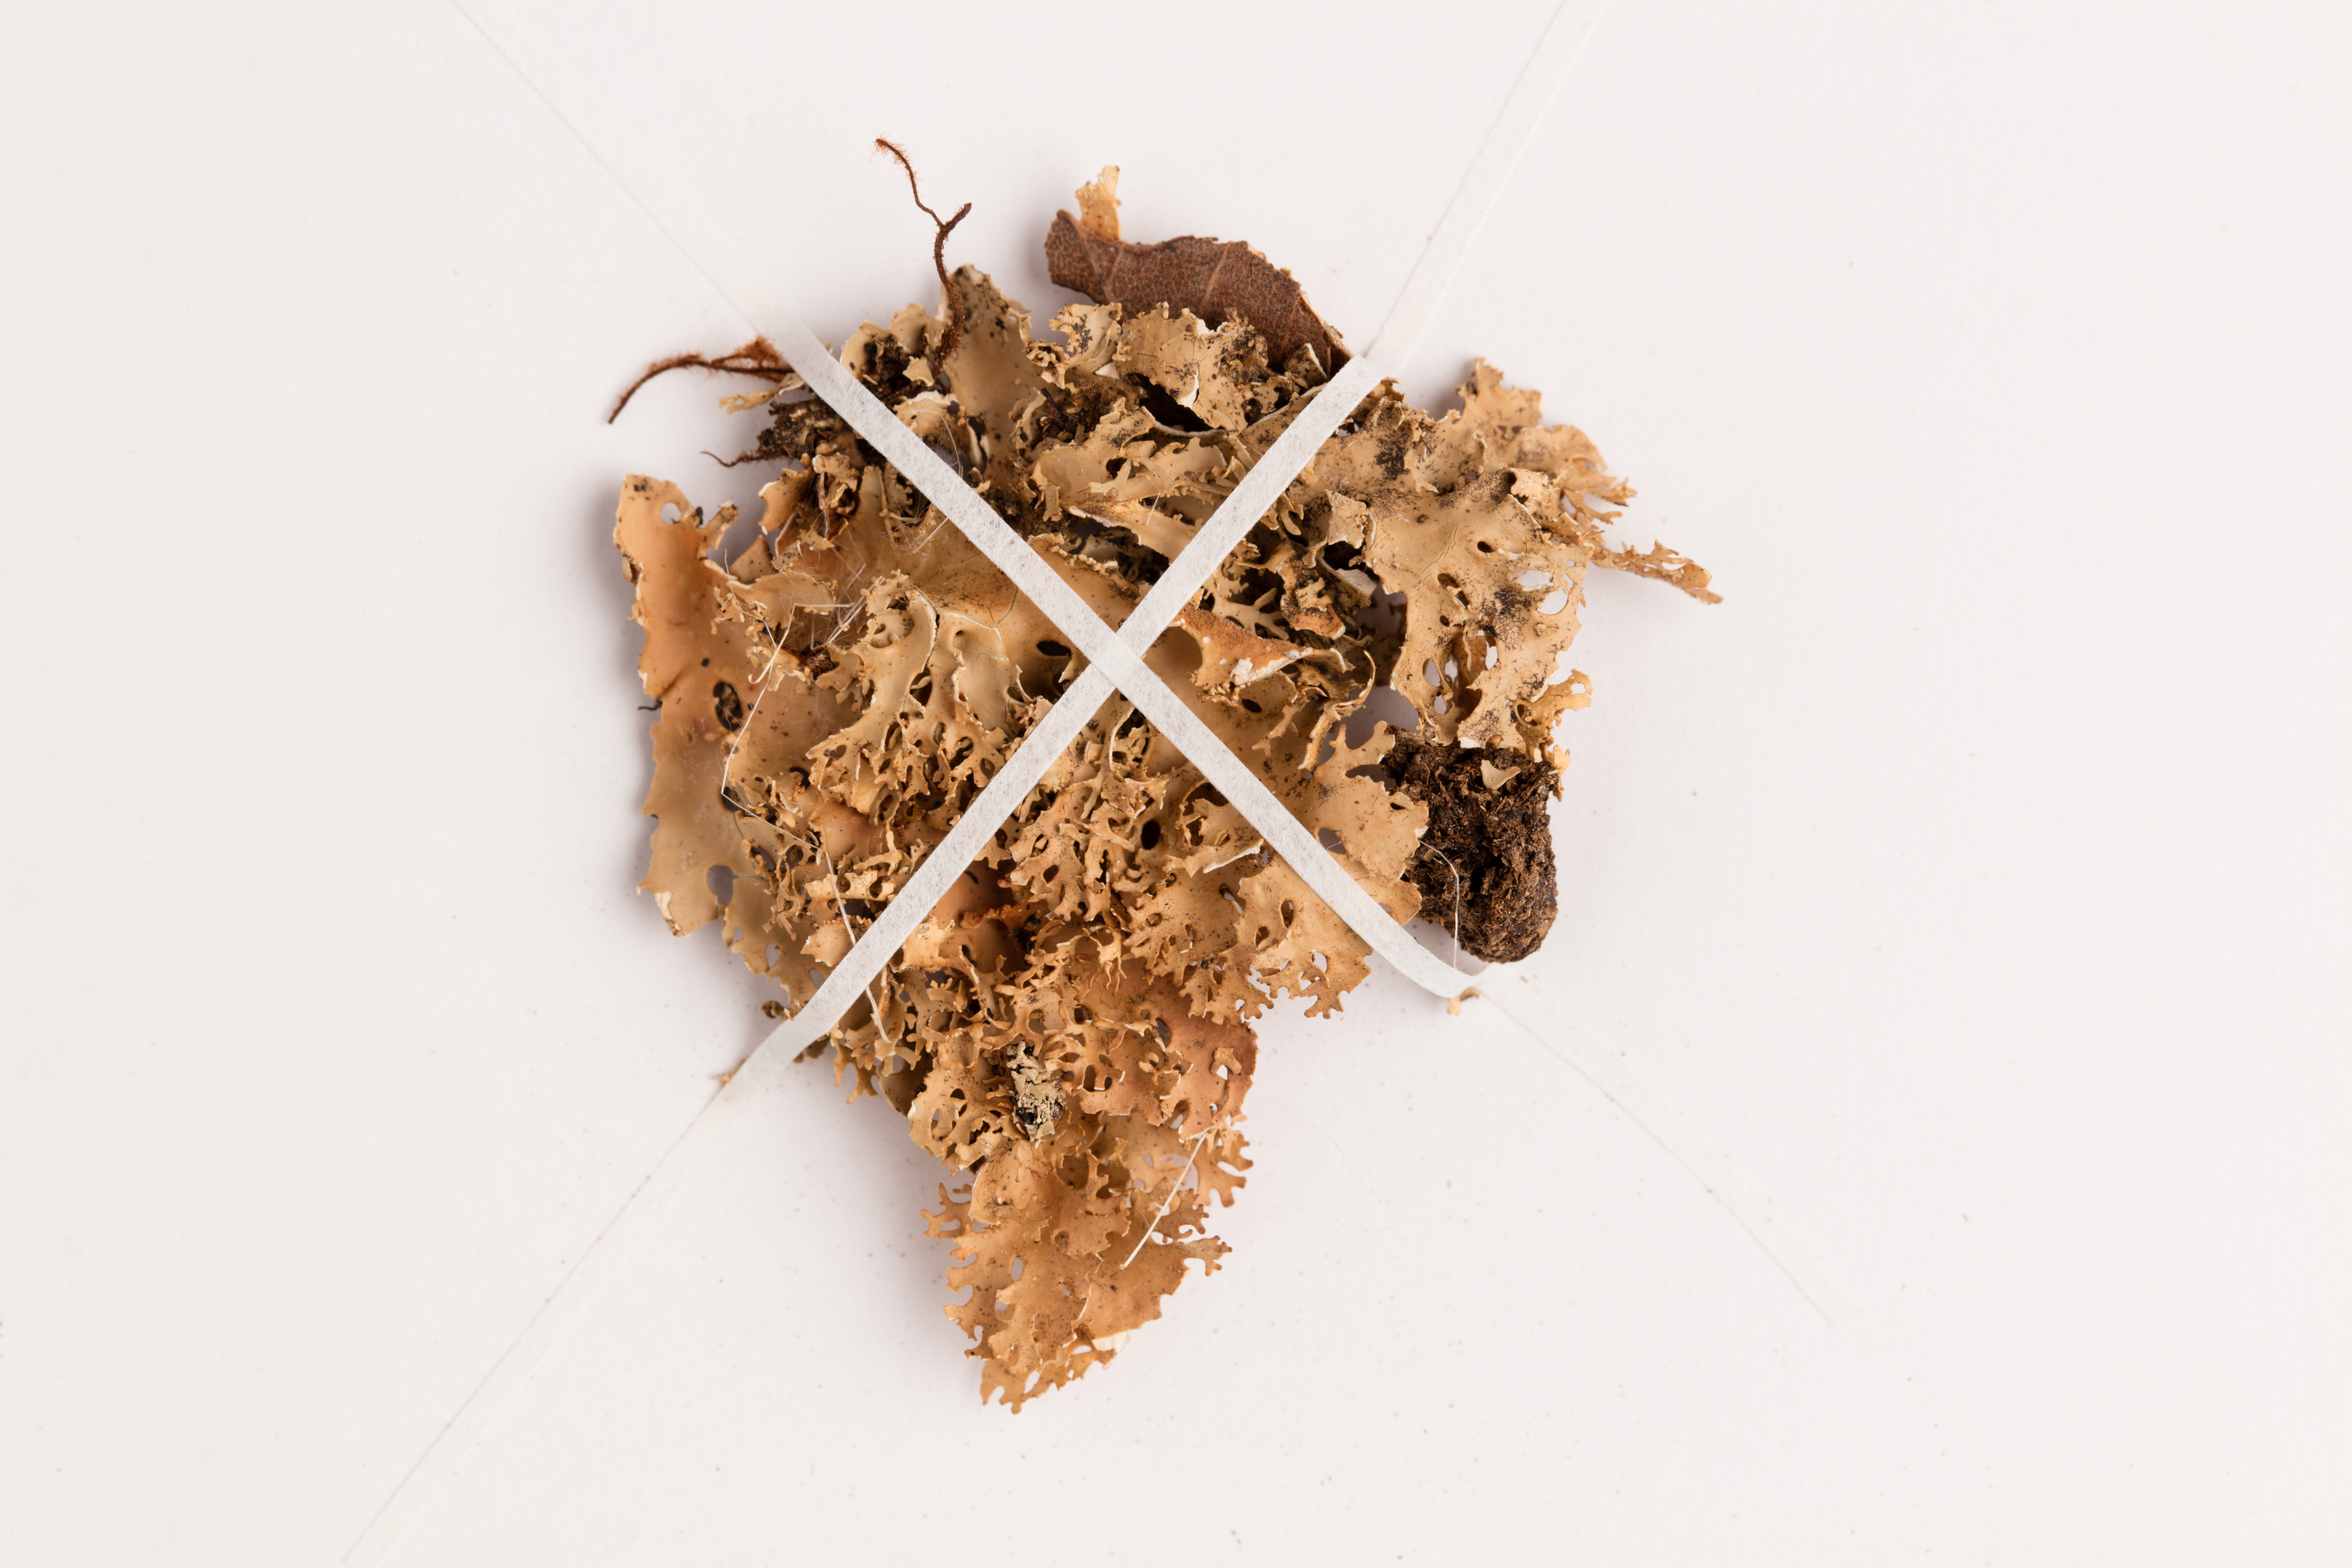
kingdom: Fungi
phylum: Ascomycota
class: Lecanoromycetes
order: Peltigerales
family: Lobariaceae
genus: Pseudocyphellaria
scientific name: Pseudocyphellaria chloroleuca
